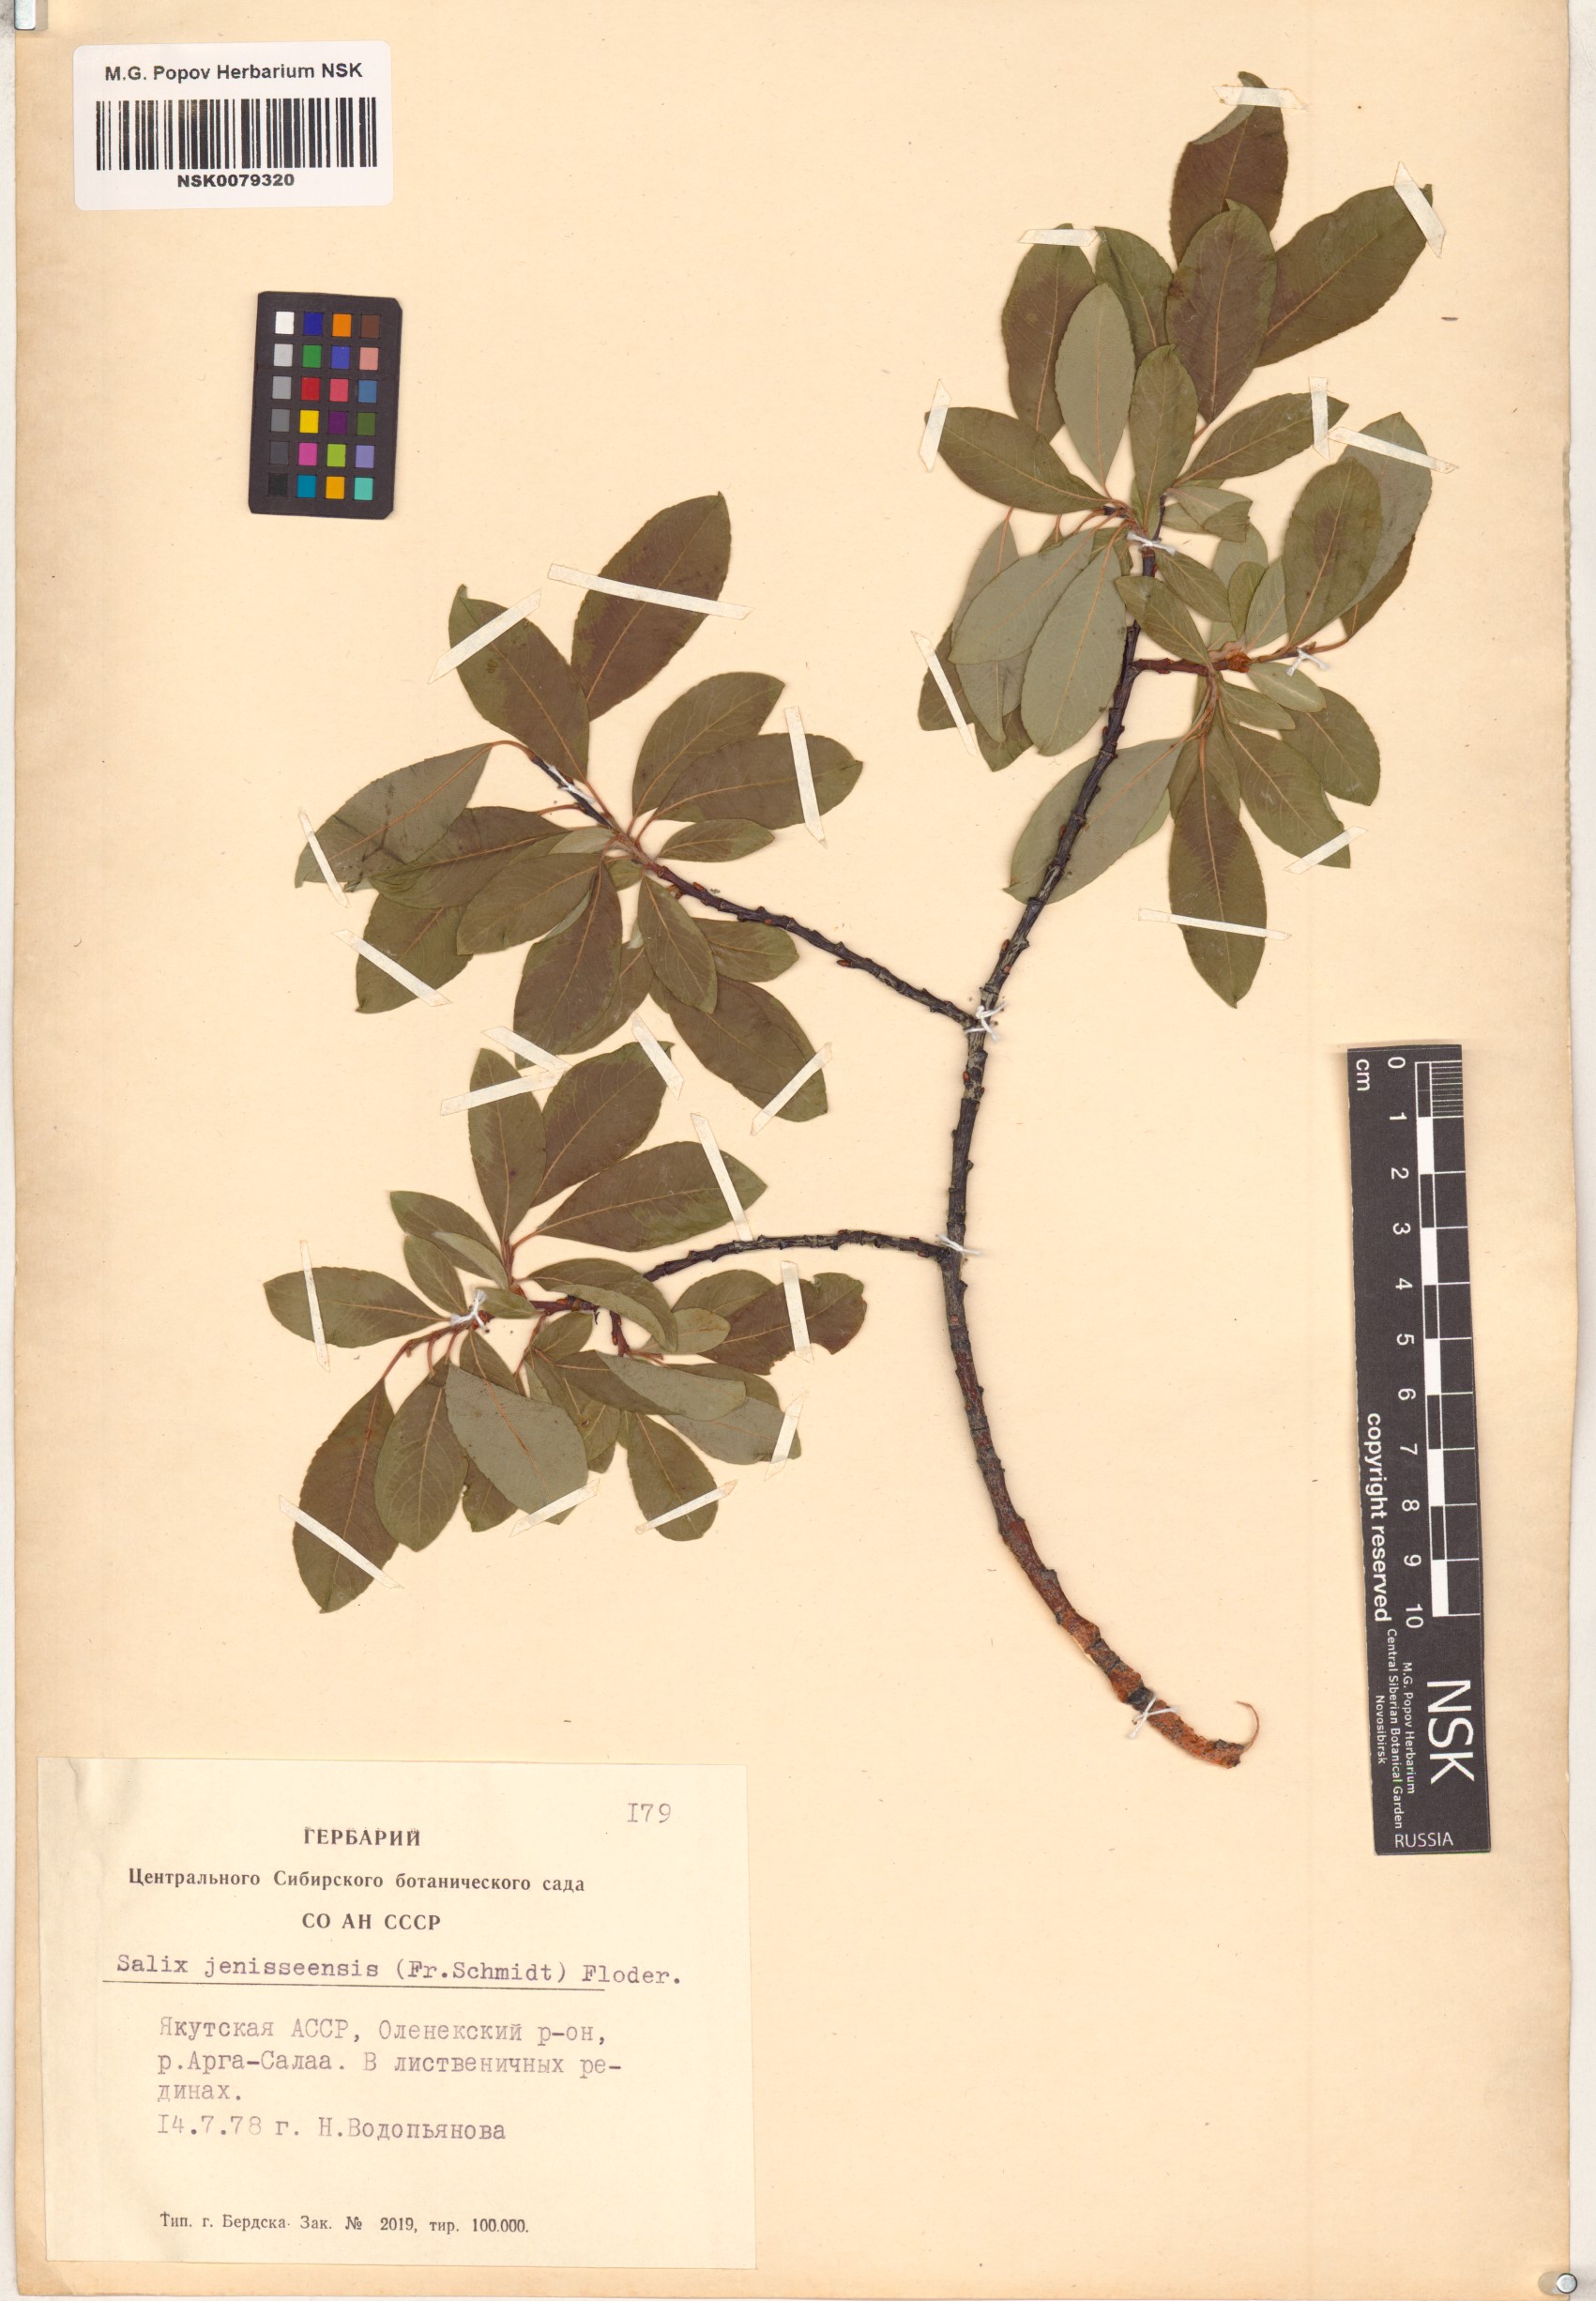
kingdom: Plantae
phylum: Tracheophyta
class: Magnoliopsida
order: Malpighiales
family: Salicaceae
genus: Salix
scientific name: Salix jenisseensis
